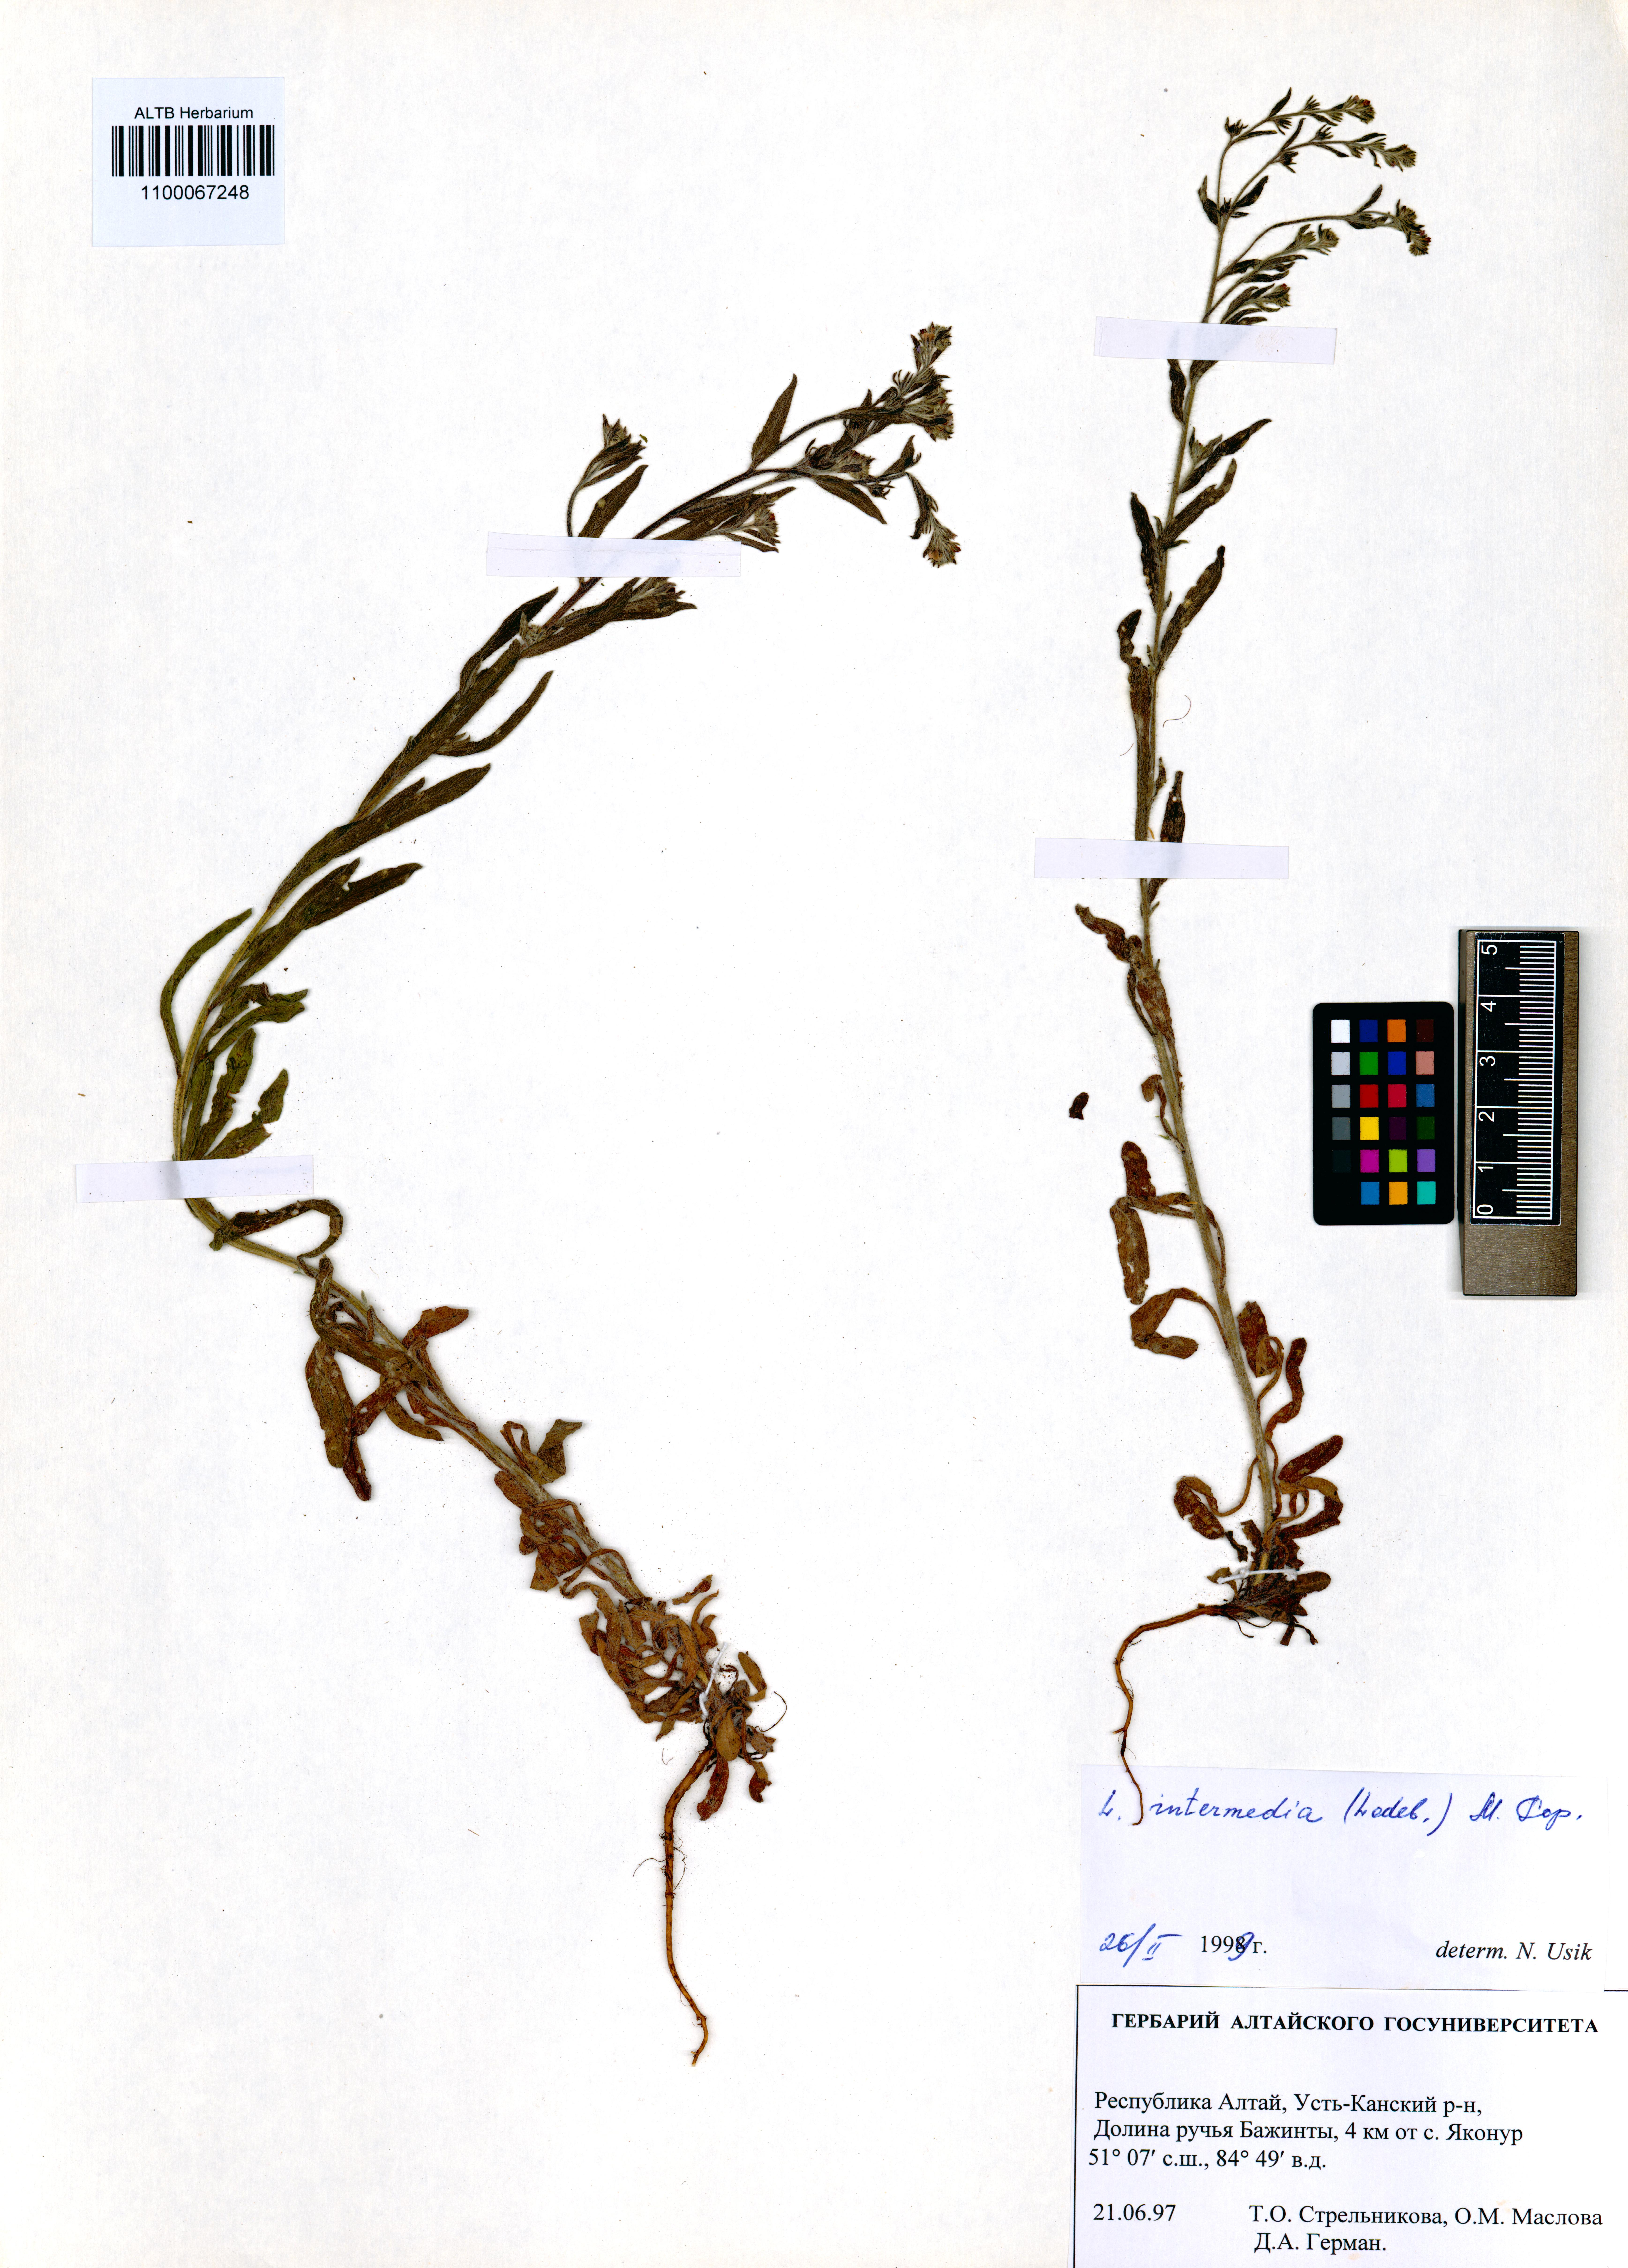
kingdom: Plantae
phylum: Tracheophyta
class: Magnoliopsida
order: Boraginales
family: Boraginaceae
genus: Lappula
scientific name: Lappula intermedia
